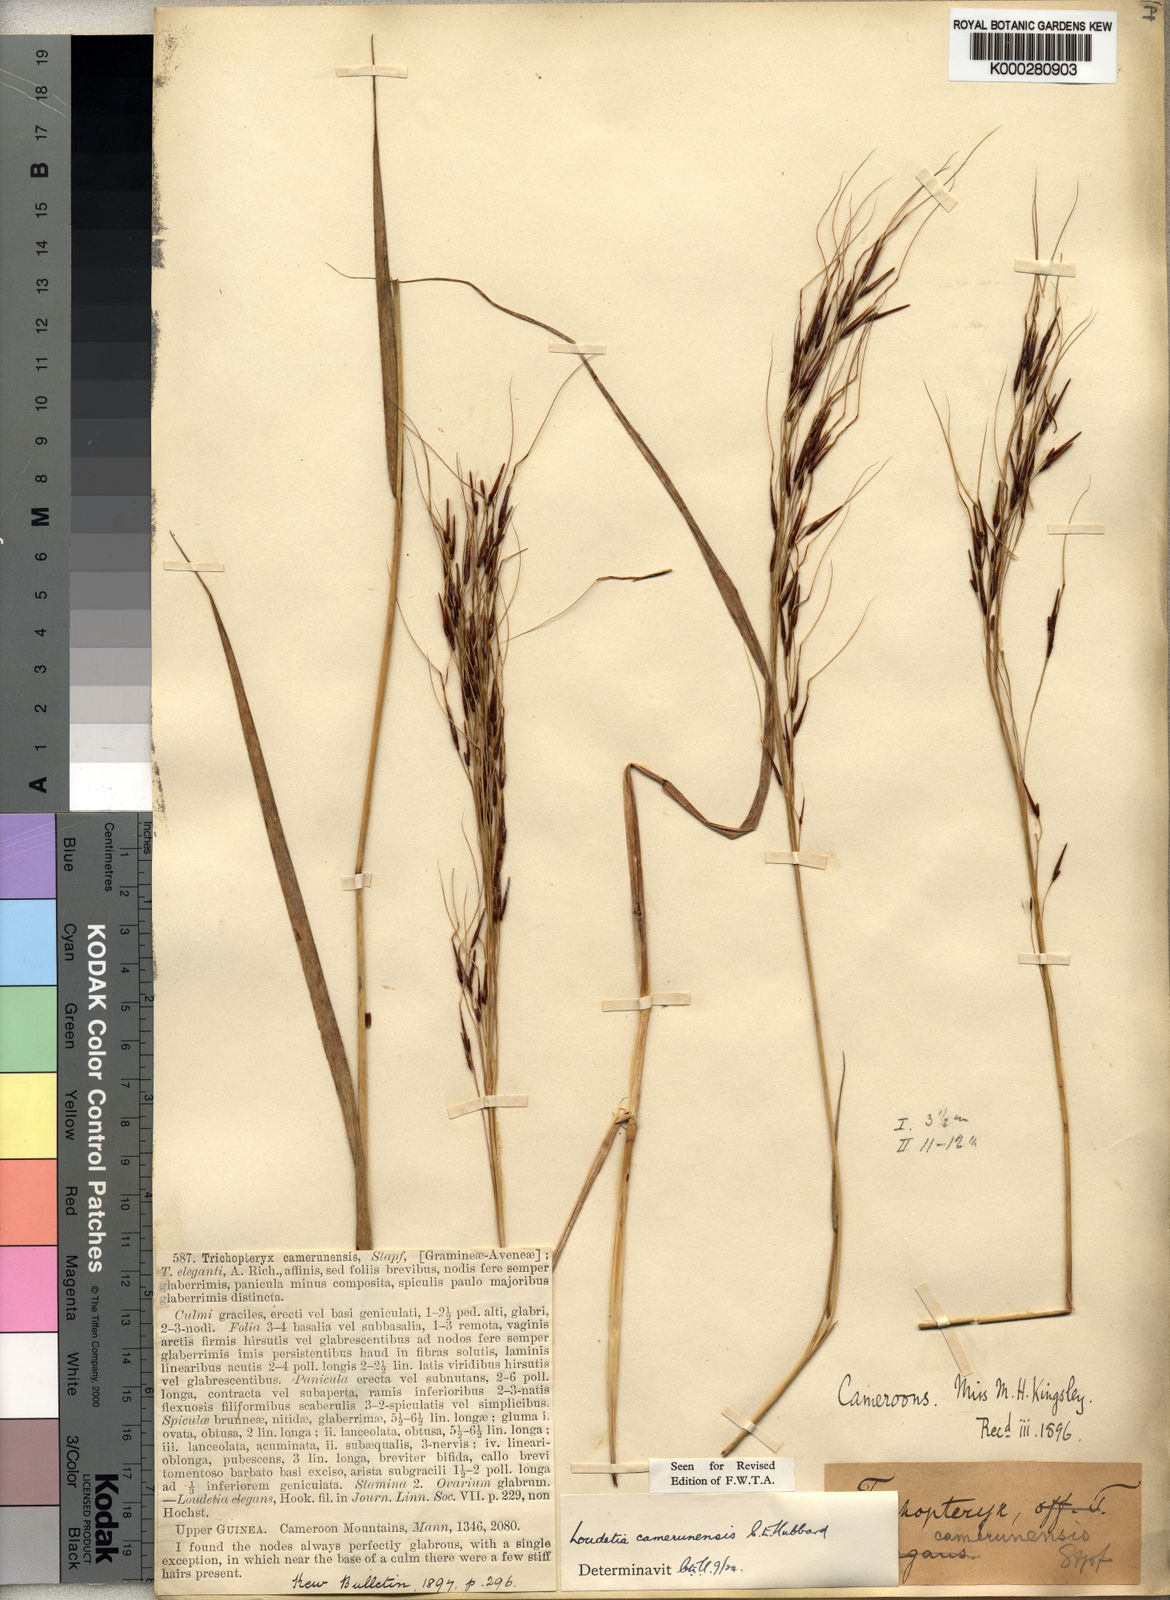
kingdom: Plantae
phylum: Tracheophyta
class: Liliopsida
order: Poales
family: Poaceae
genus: Loudetia
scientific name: Loudetia simplex
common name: Common russet grass
